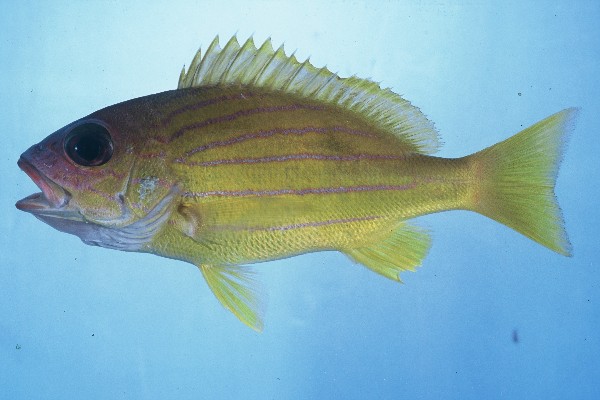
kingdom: Animalia
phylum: Chordata
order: Perciformes
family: Lutjanidae
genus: Lutjanus
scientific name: Lutjanus notatus
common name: Bluestriped snapper
